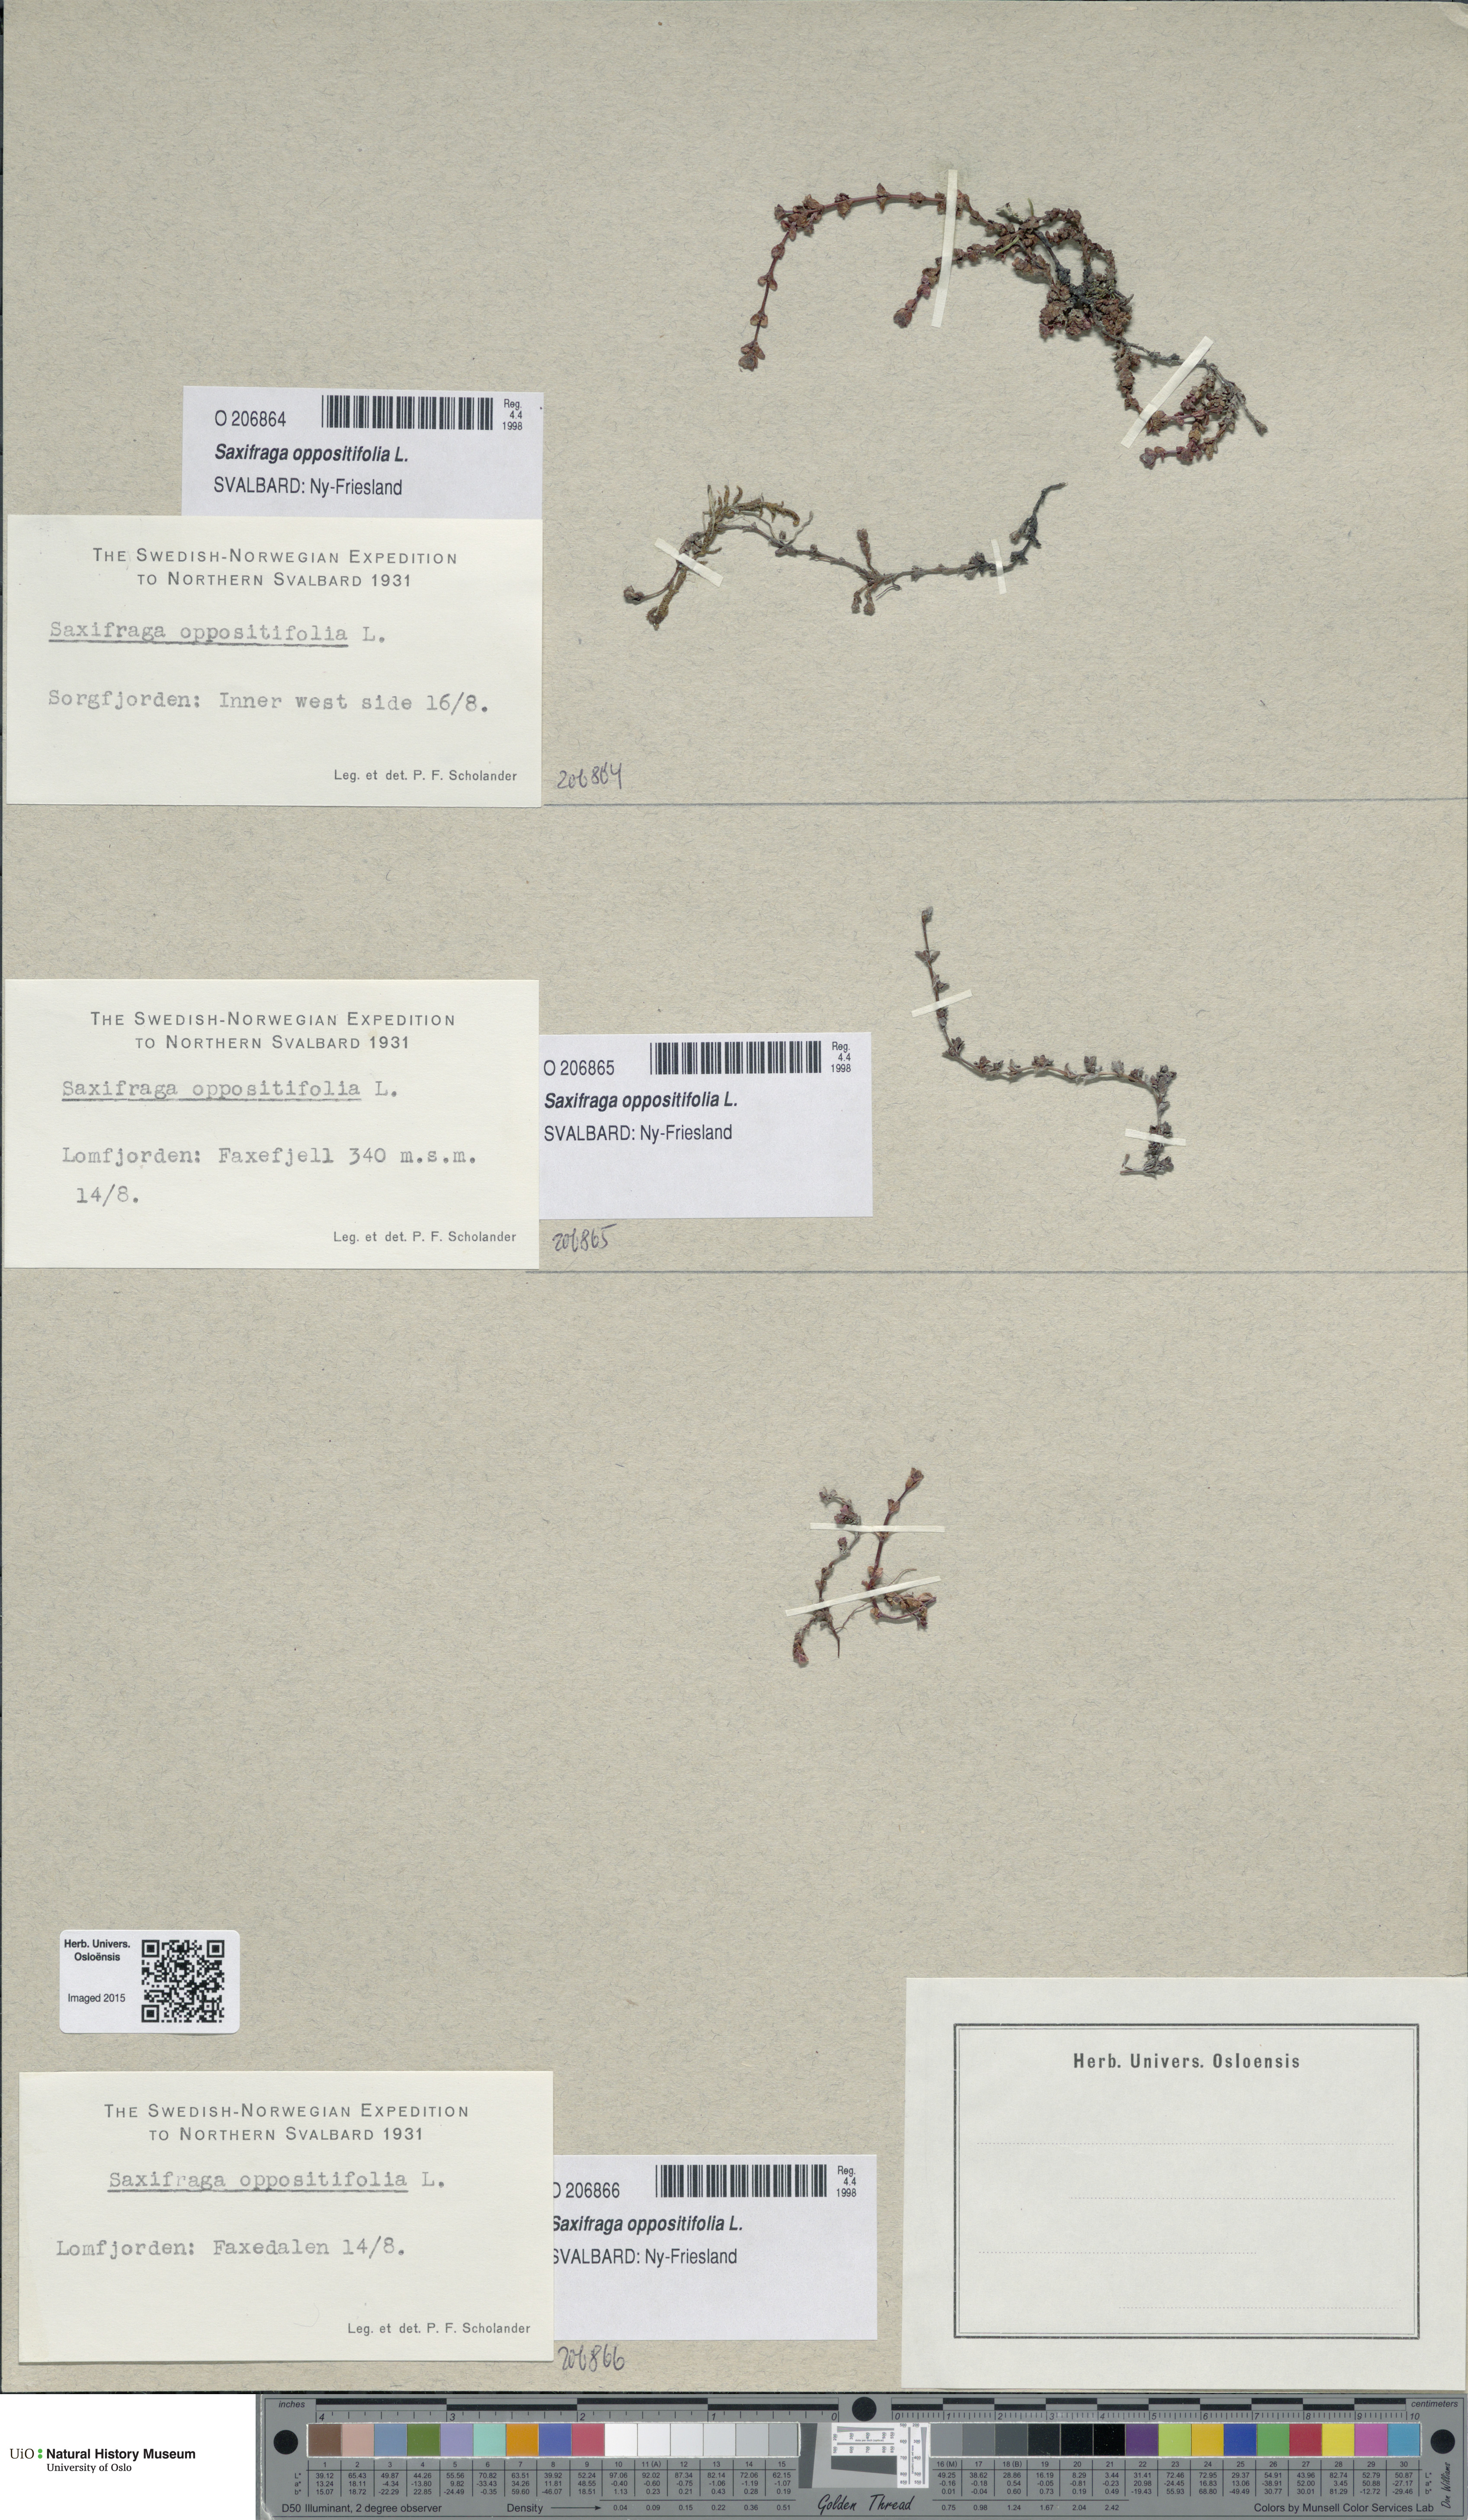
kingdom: Plantae
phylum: Tracheophyta
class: Magnoliopsida
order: Saxifragales
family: Saxifragaceae
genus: Saxifraga
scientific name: Saxifraga oppositifolia
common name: Purple saxifrage
